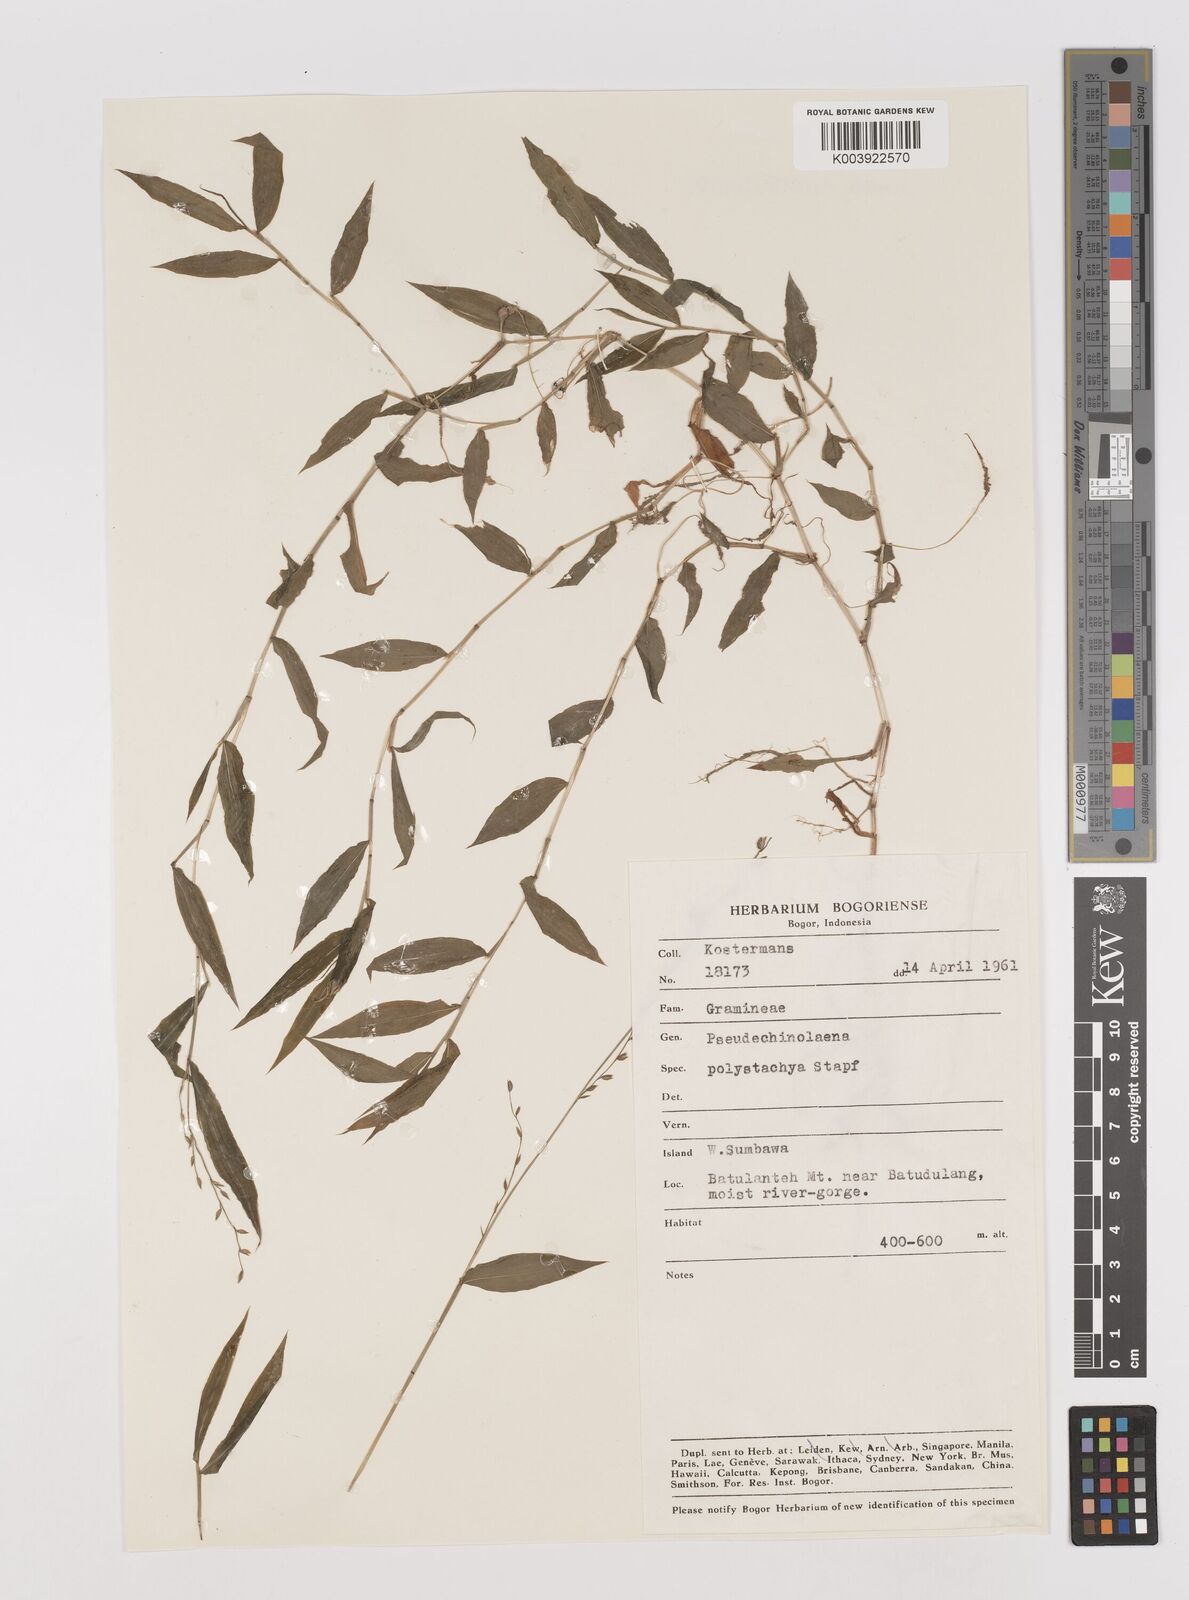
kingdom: Plantae
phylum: Tracheophyta
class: Liliopsida
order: Poales
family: Poaceae
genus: Pseudechinolaena
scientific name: Pseudechinolaena polystachya
